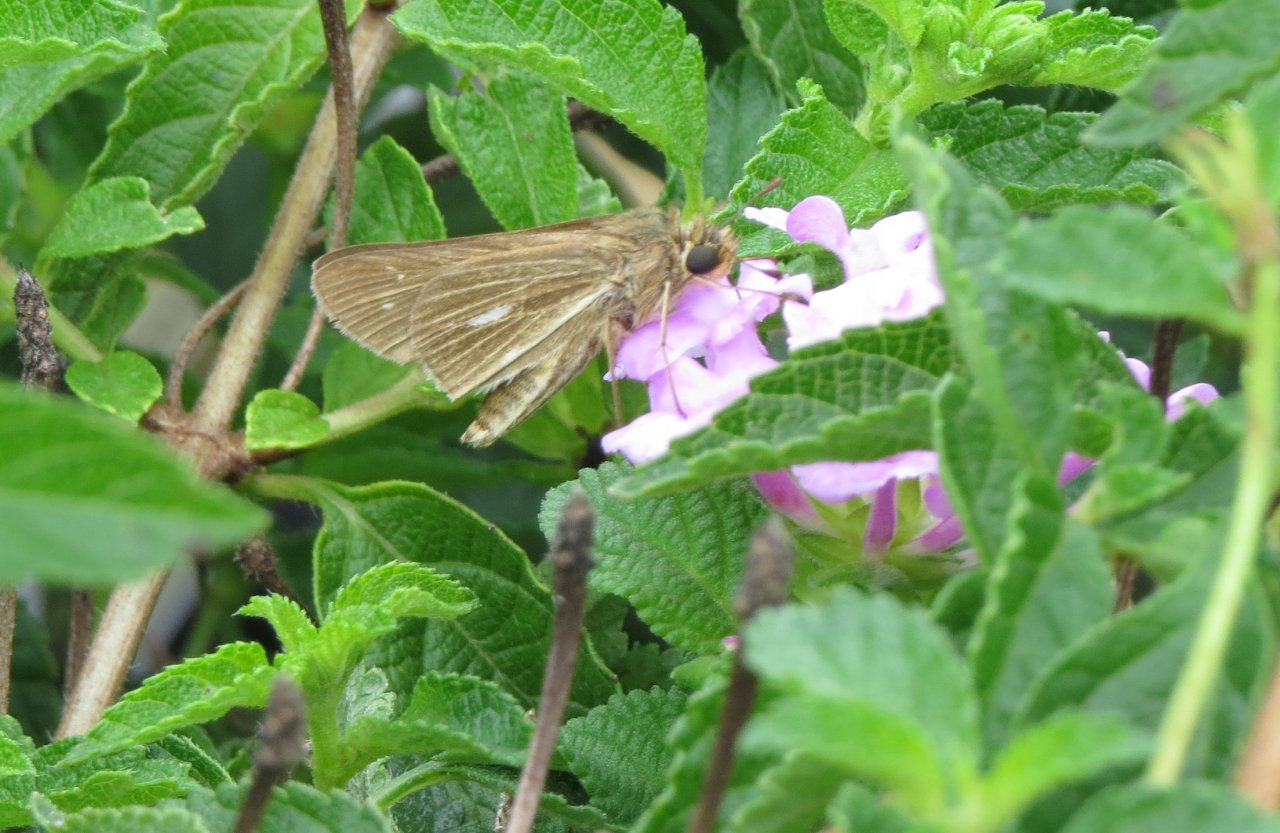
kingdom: Animalia
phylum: Arthropoda
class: Insecta
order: Lepidoptera
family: Hesperiidae
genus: Panoquina
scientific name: Panoquina panoquin
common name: Salt Marsh Skipper
